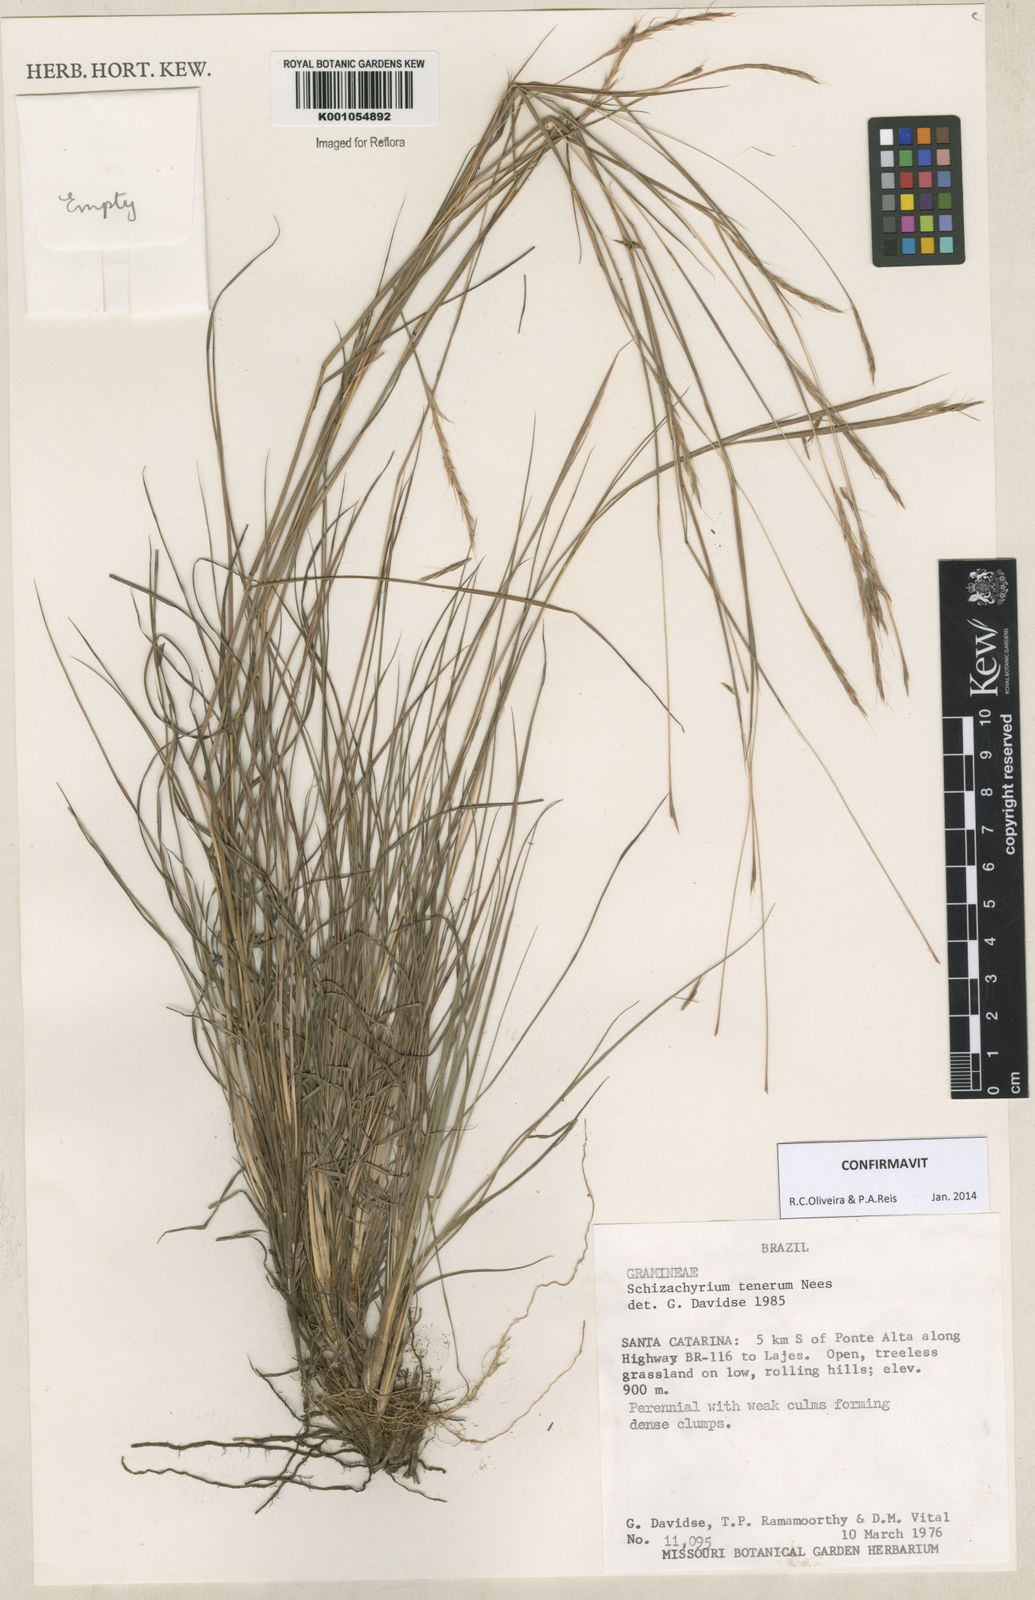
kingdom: Plantae
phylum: Tracheophyta
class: Liliopsida
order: Poales
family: Poaceae
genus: Andropogon
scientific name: Andropogon tener
